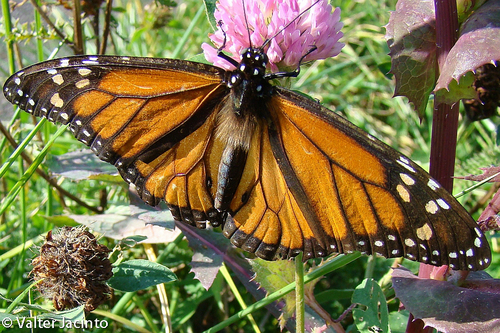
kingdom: Animalia
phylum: Arthropoda
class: Insecta
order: Lepidoptera
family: Nymphalidae
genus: Danaus
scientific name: Danaus plexippus
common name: Monarch
